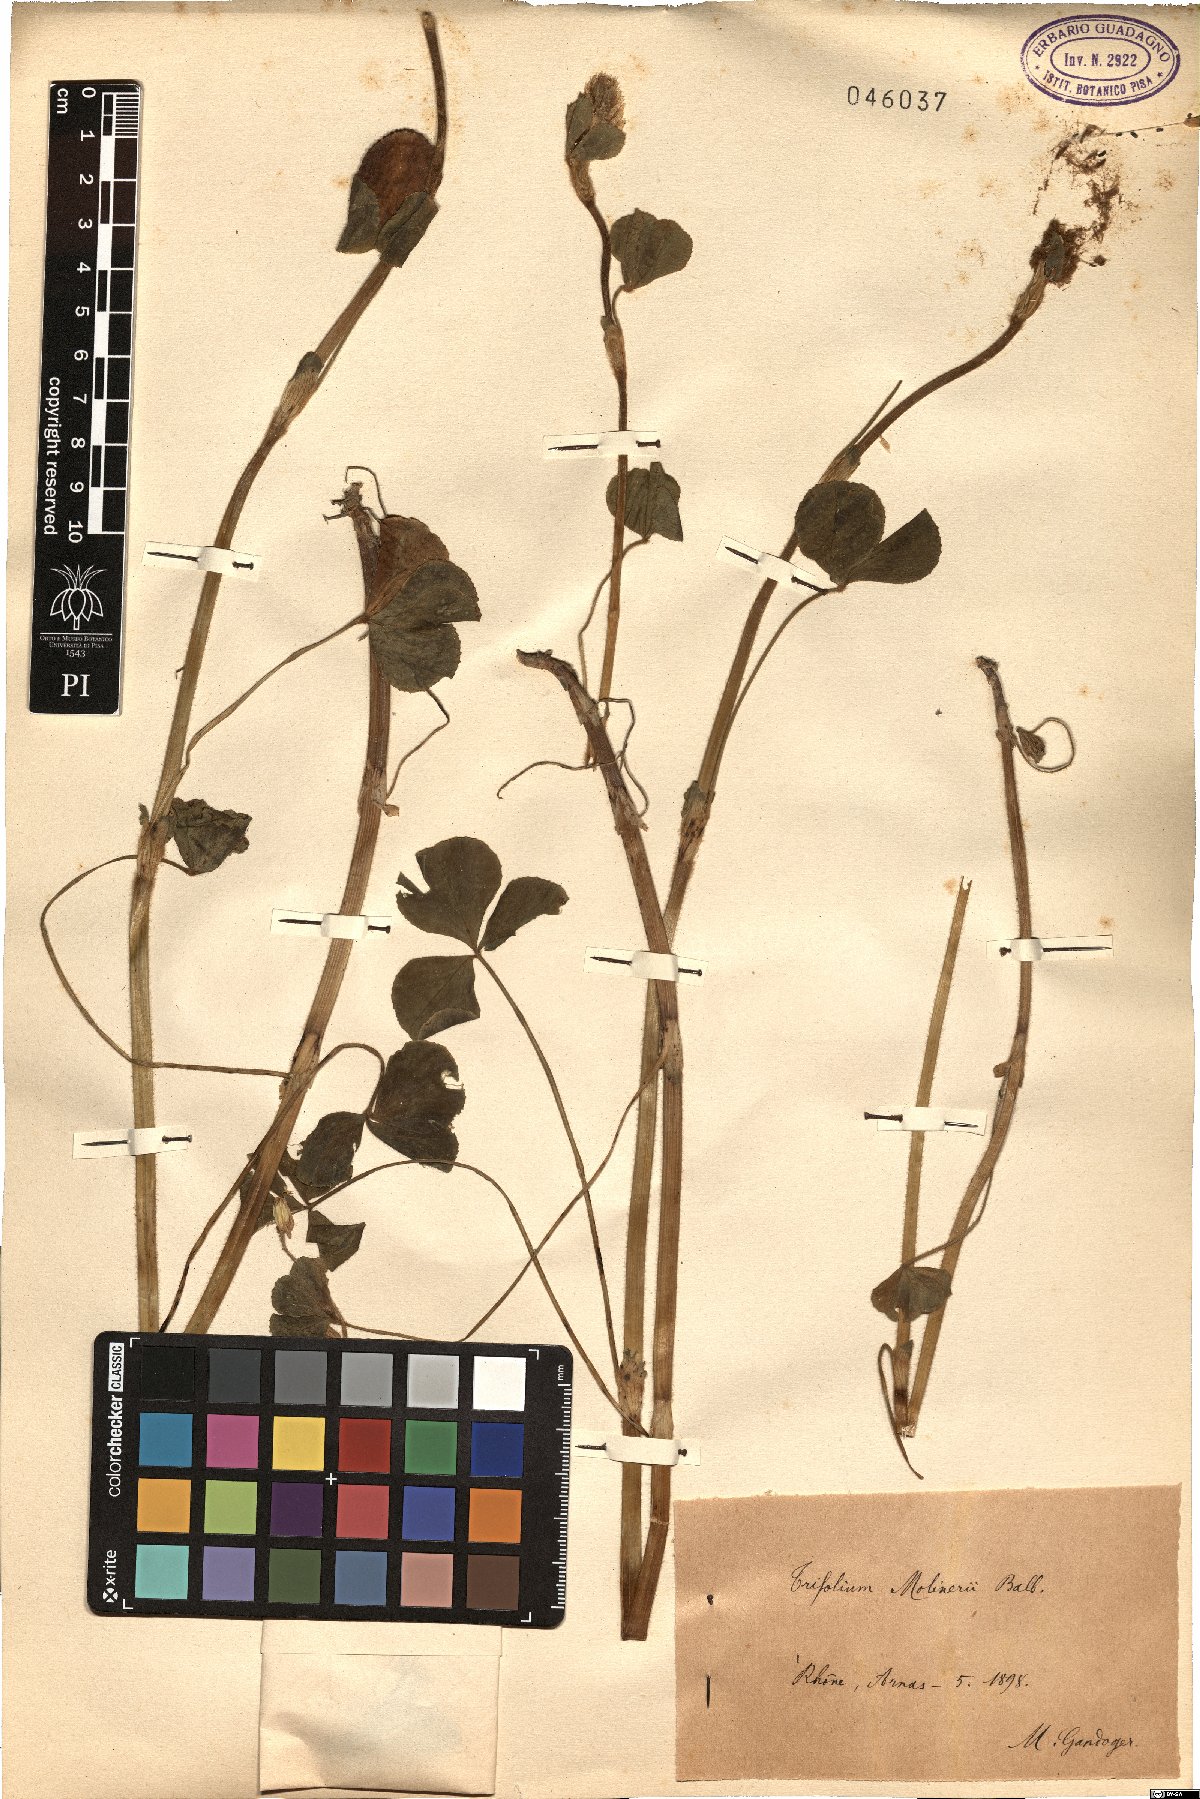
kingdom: Plantae
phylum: Tracheophyta
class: Magnoliopsida
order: Fabales
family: Fabaceae
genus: Trifolium
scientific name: Trifolium incarnatum
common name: Crimson clover
